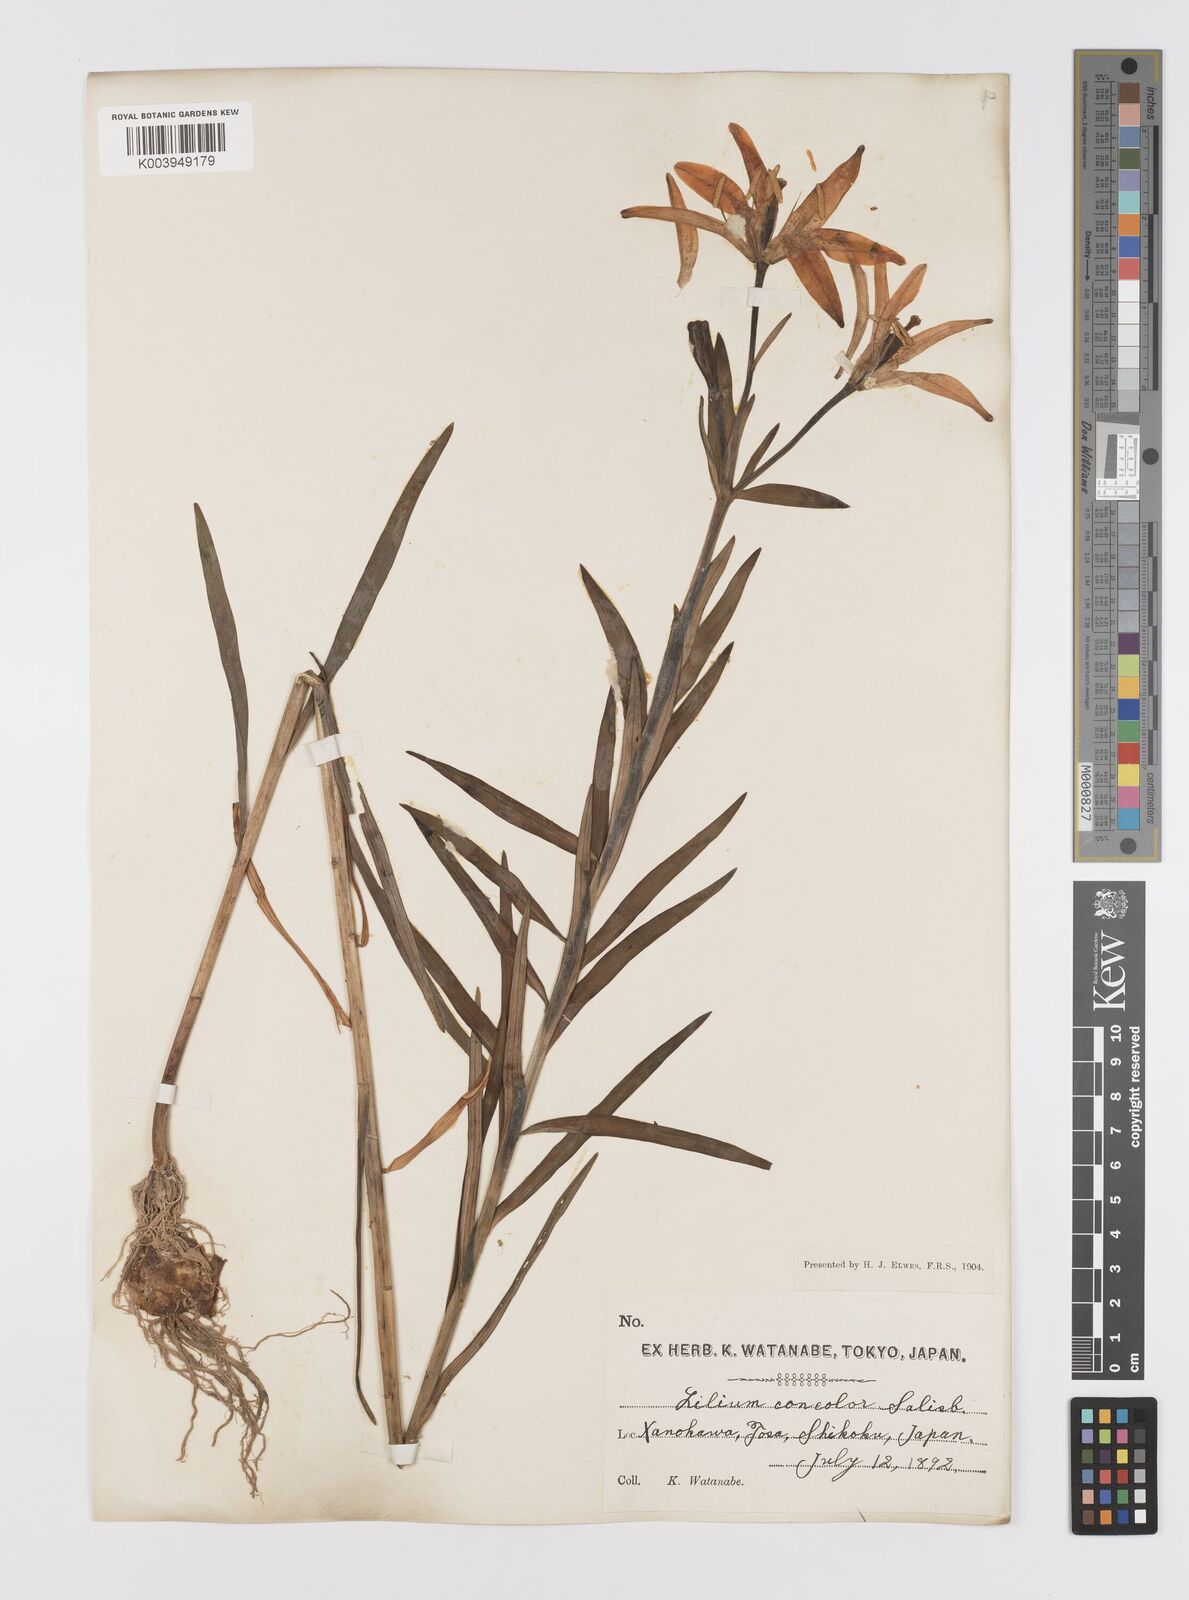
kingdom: Plantae
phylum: Tracheophyta
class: Liliopsida
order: Liliales
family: Liliaceae
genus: Lilium
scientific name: Lilium concolor
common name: Morning-star lily
